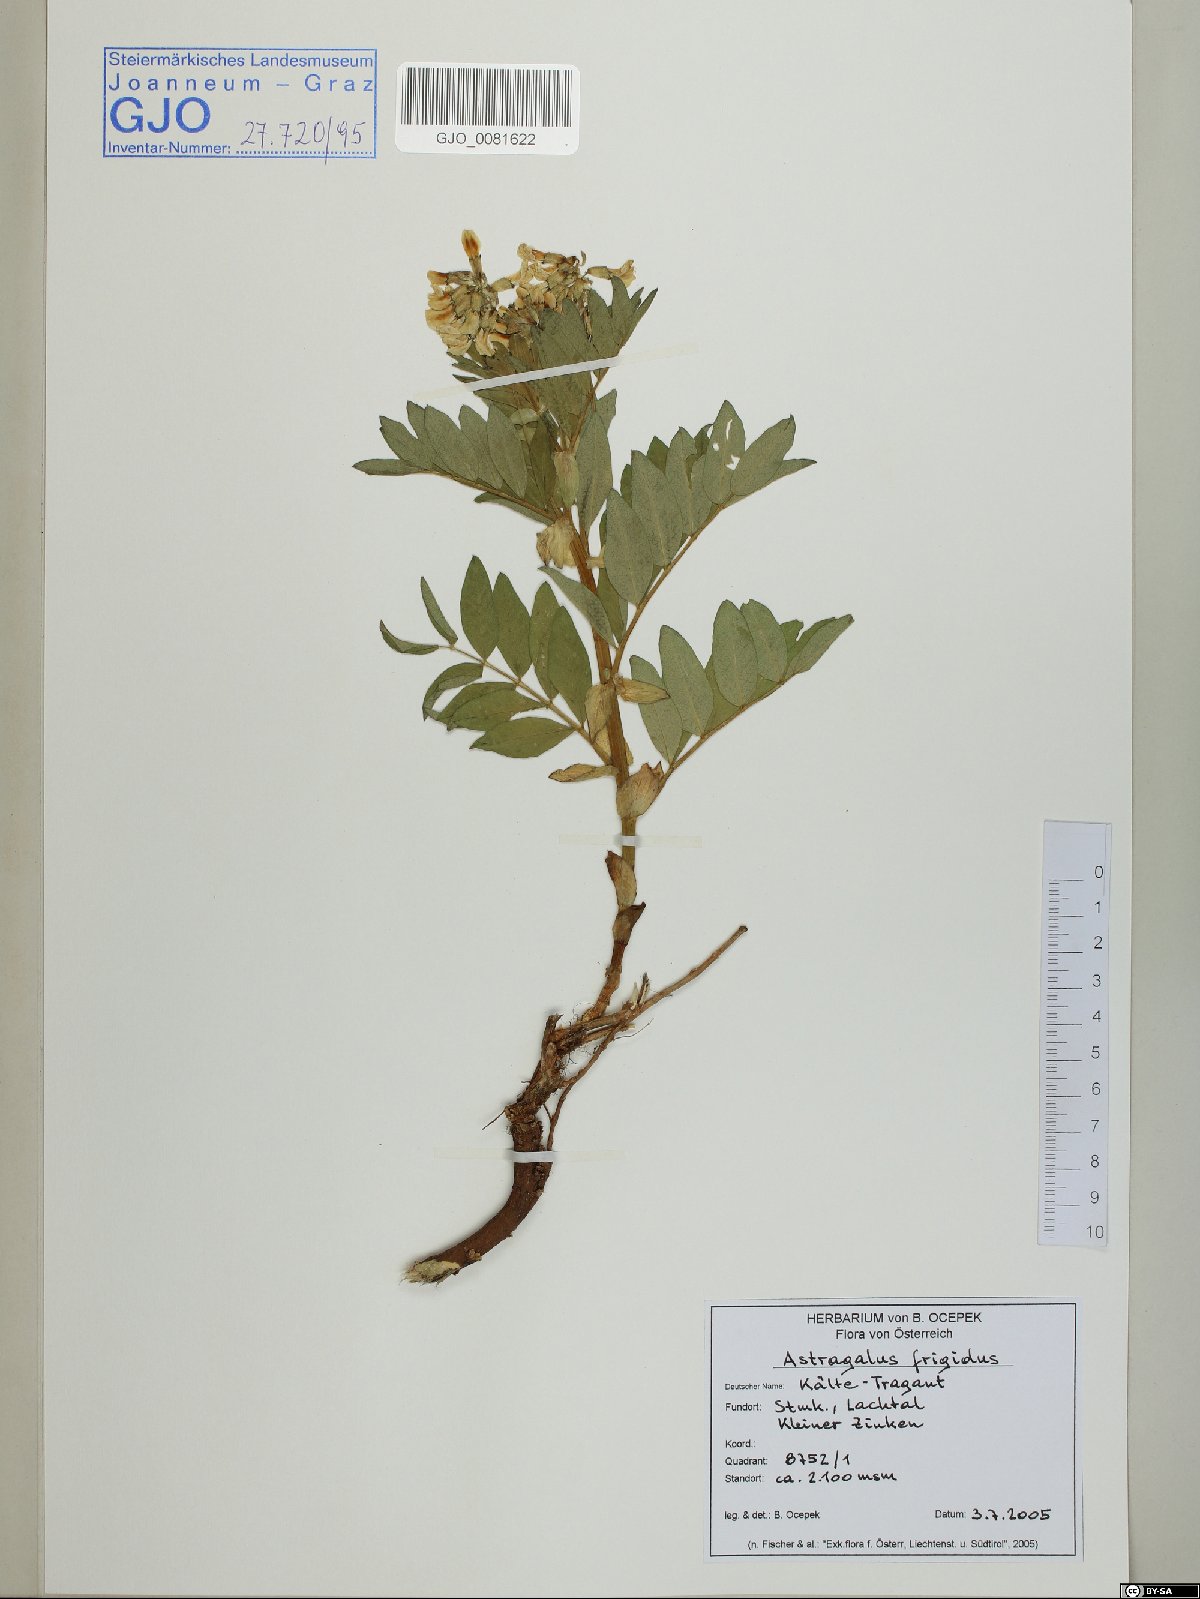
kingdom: Plantae
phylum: Tracheophyta
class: Magnoliopsida
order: Fabales
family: Fabaceae
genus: Astragalus
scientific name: Astragalus frigidus
